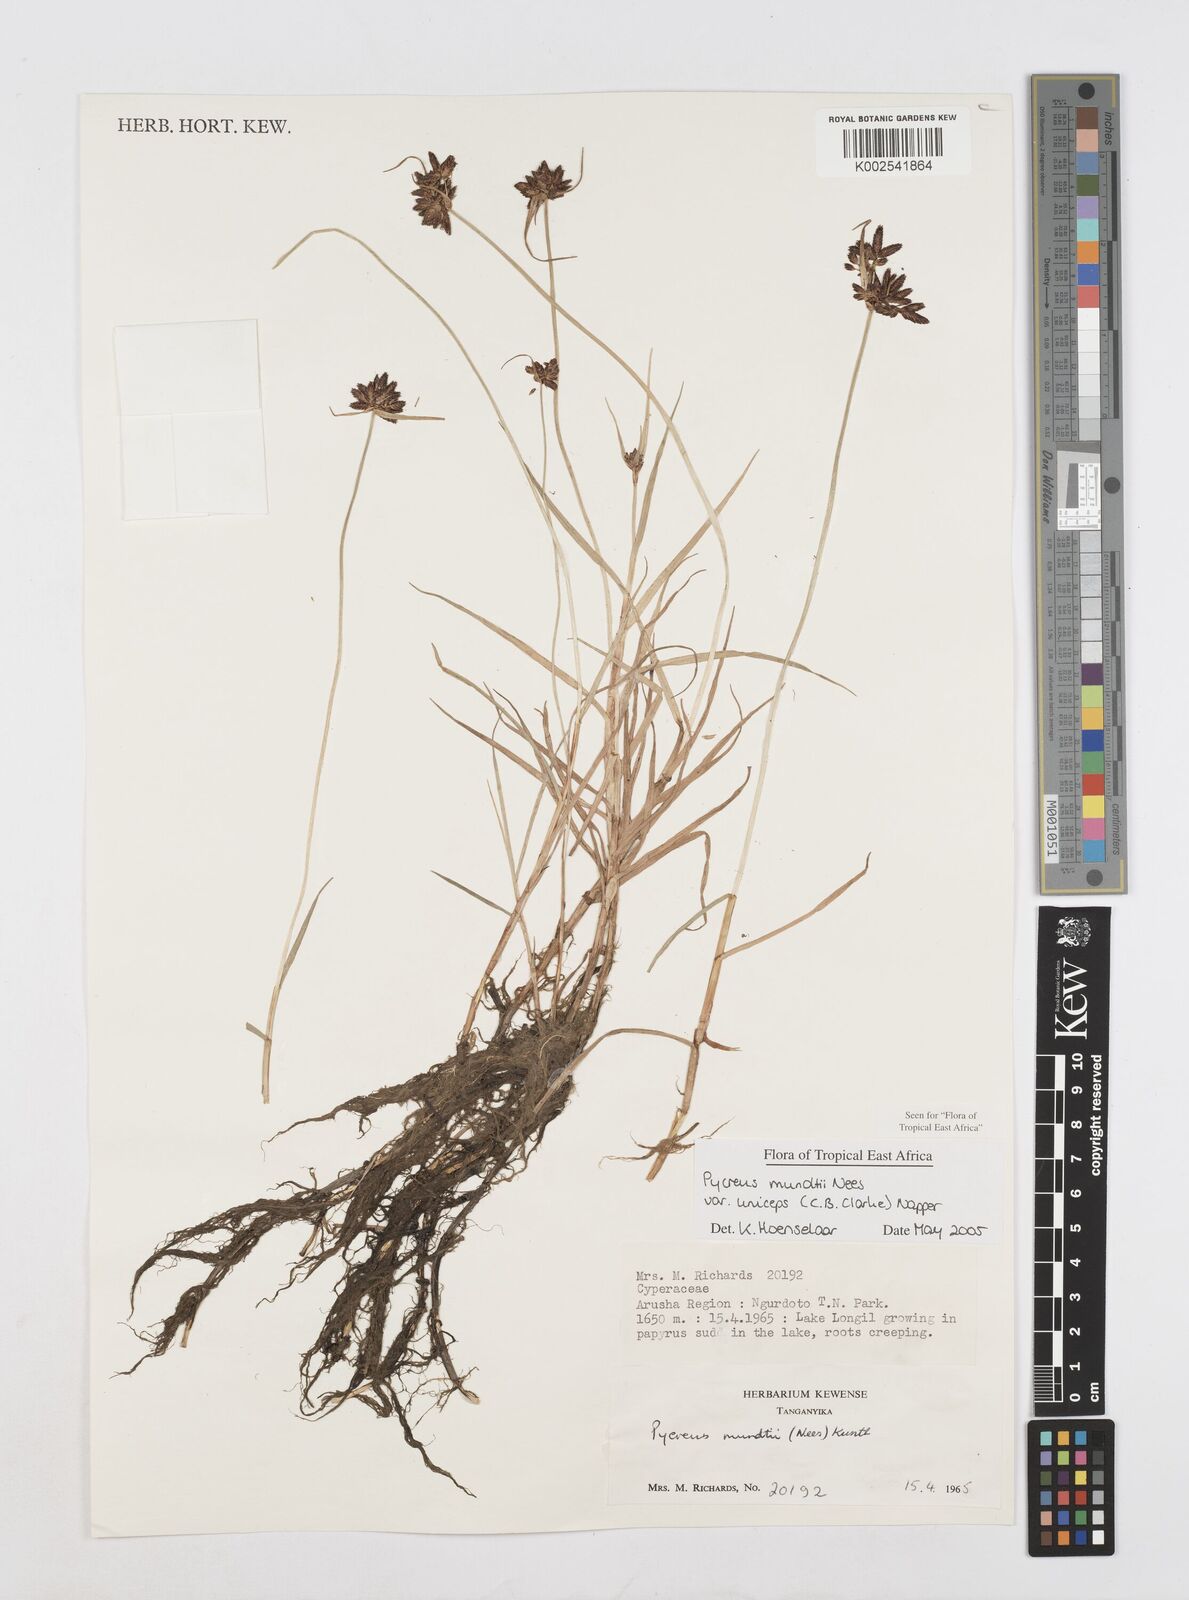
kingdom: Plantae
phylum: Tracheophyta
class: Liliopsida
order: Poales
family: Cyperaceae
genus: Cyperus
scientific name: Cyperus mundii
